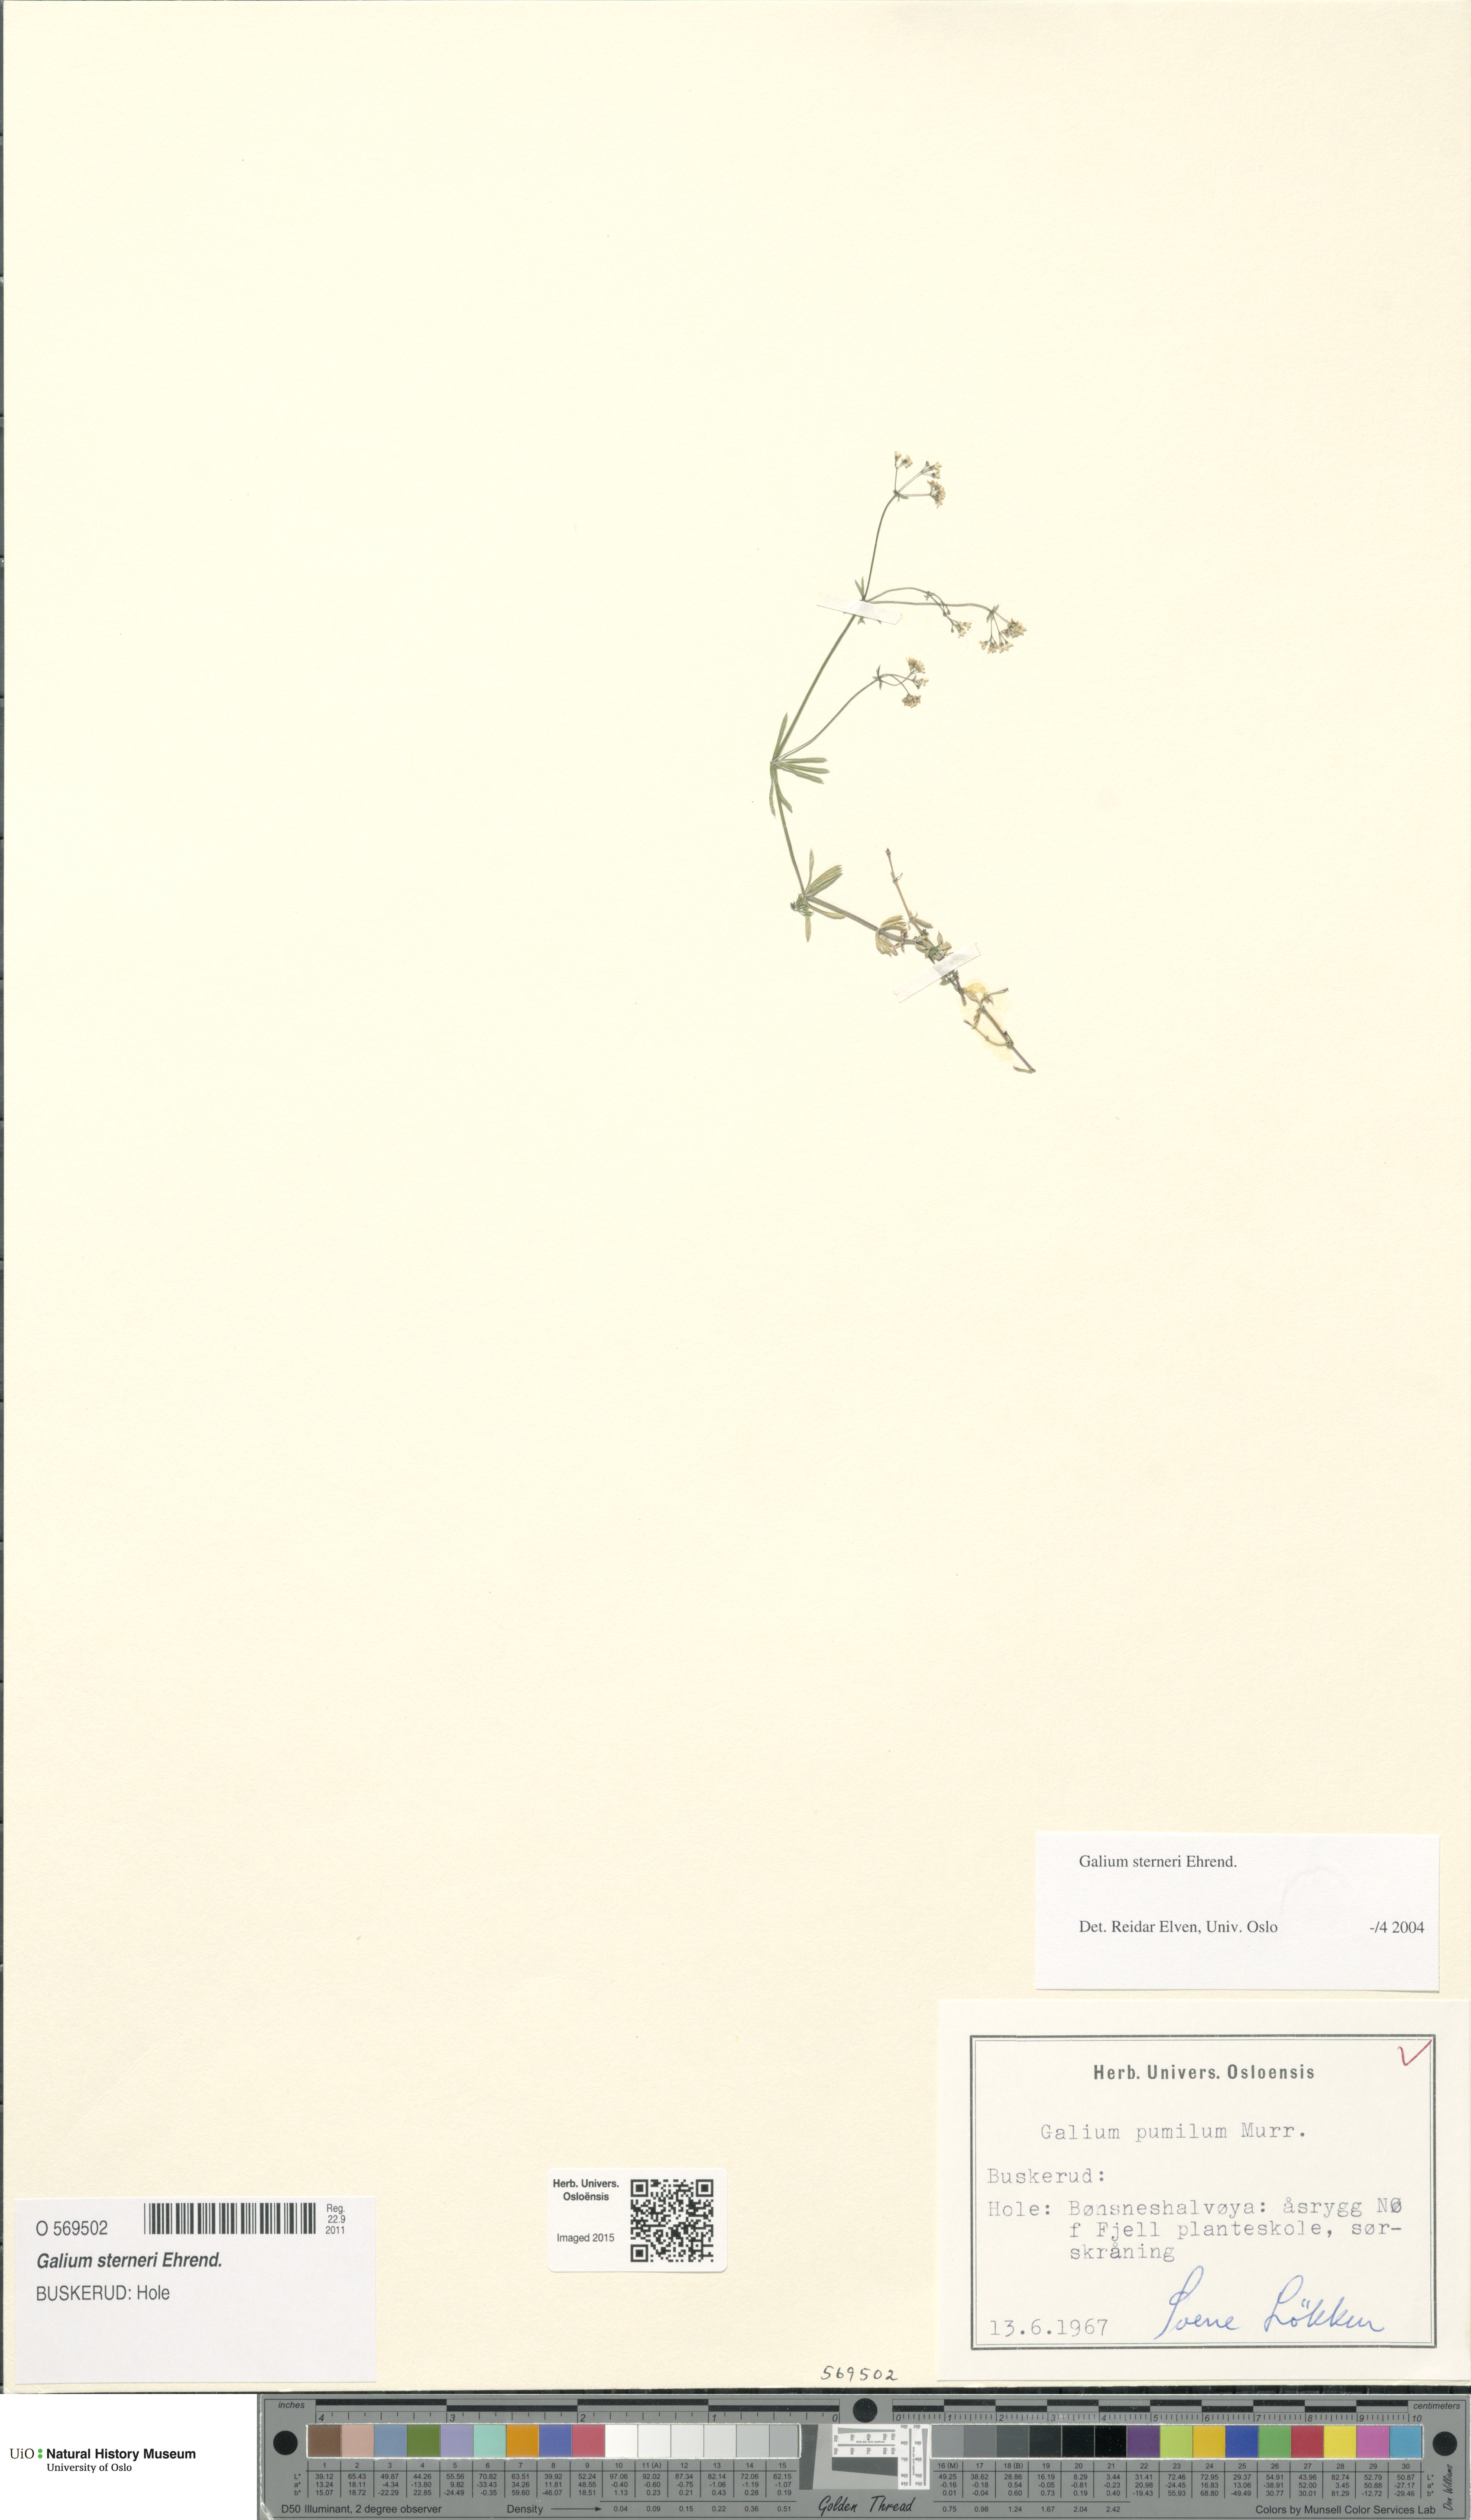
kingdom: Plantae
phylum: Tracheophyta
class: Magnoliopsida
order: Gentianales
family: Rubiaceae
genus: Galium
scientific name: Galium sterneri
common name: Limestone bedstraw
